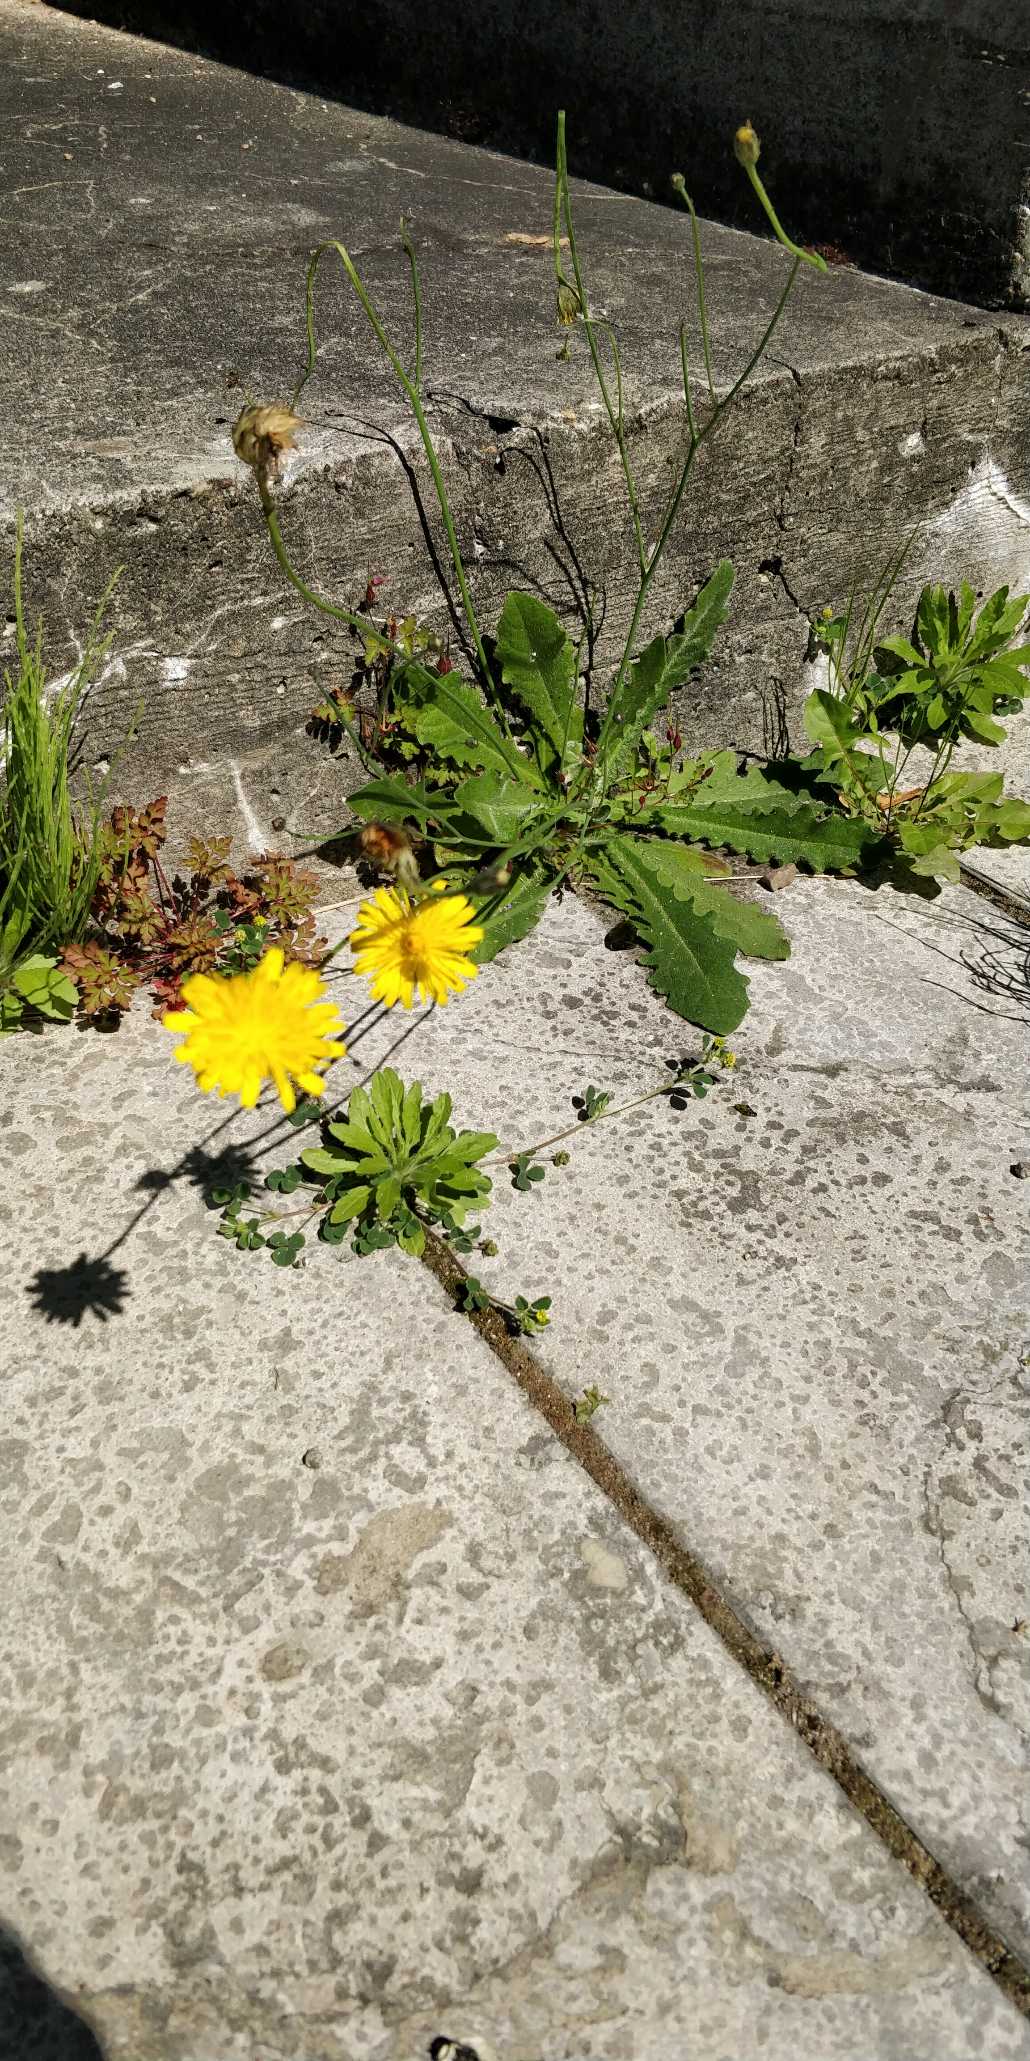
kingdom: Plantae
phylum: Tracheophyta
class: Magnoliopsida
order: Asterales
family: Asteraceae
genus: Hypochaeris
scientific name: Hypochaeris radicata
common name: Almindelig kongepen
